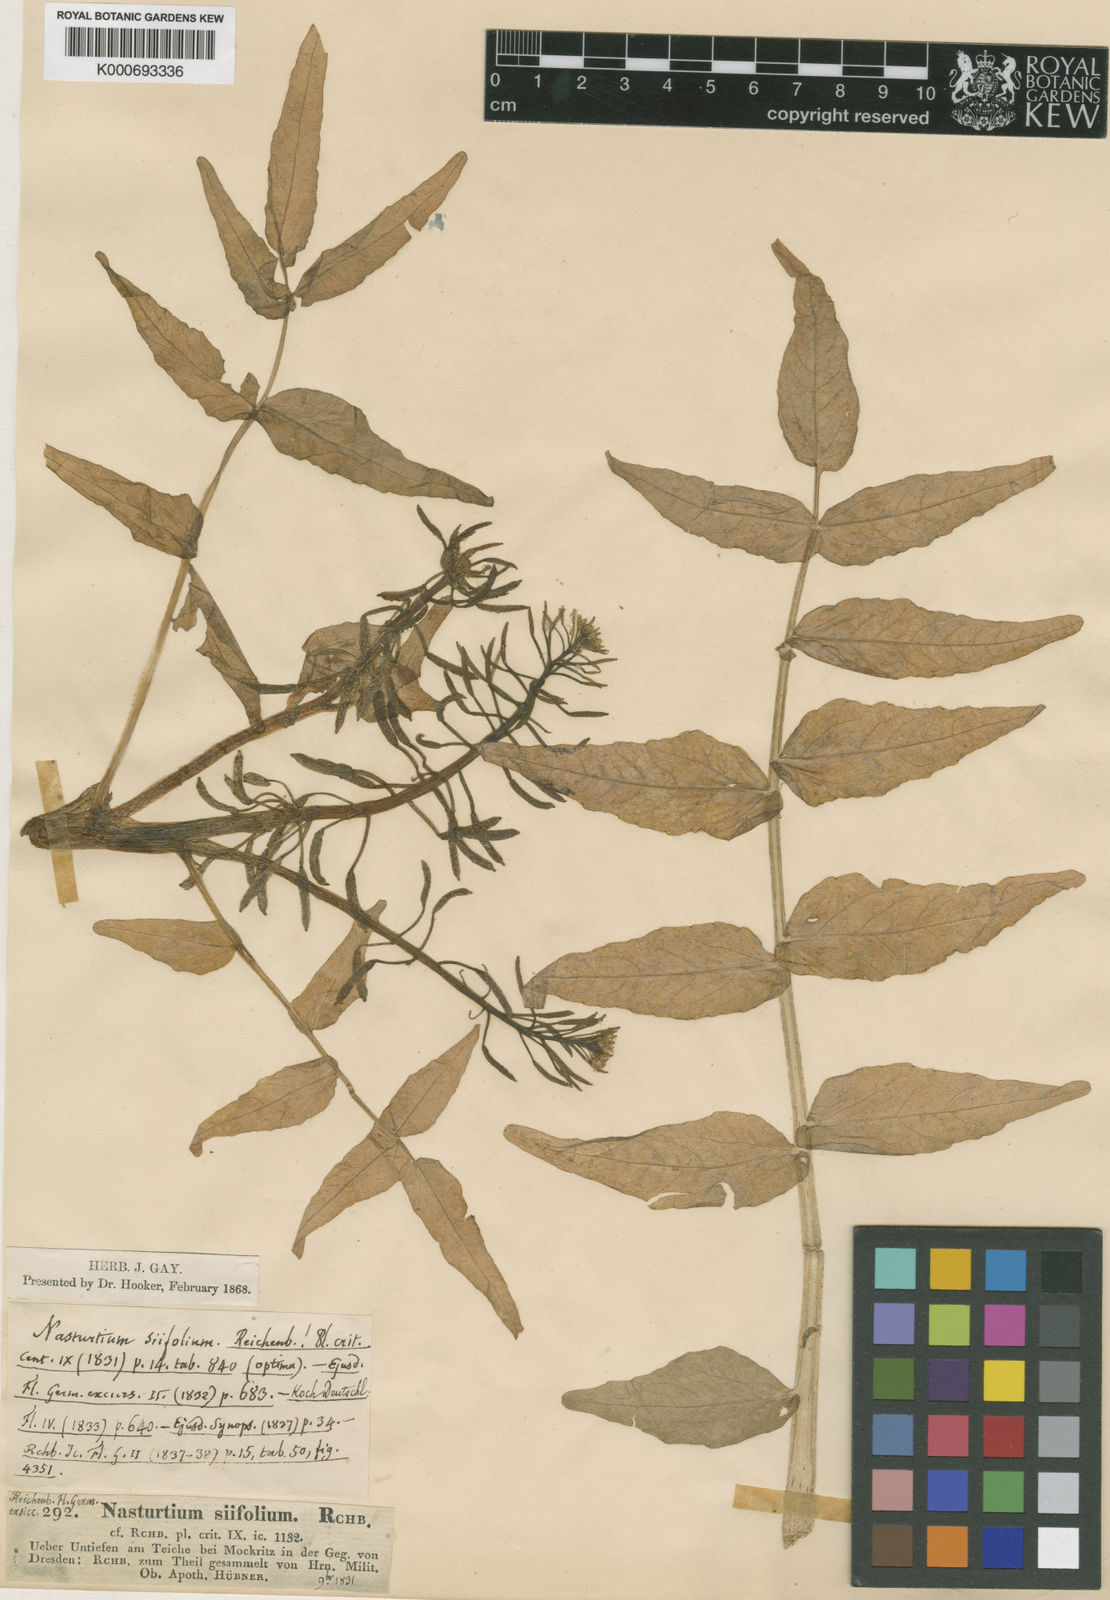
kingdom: Plantae
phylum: Tracheophyta
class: Magnoliopsida
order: Brassicales
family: Brassicaceae
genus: Nasturtium
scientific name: Nasturtium
